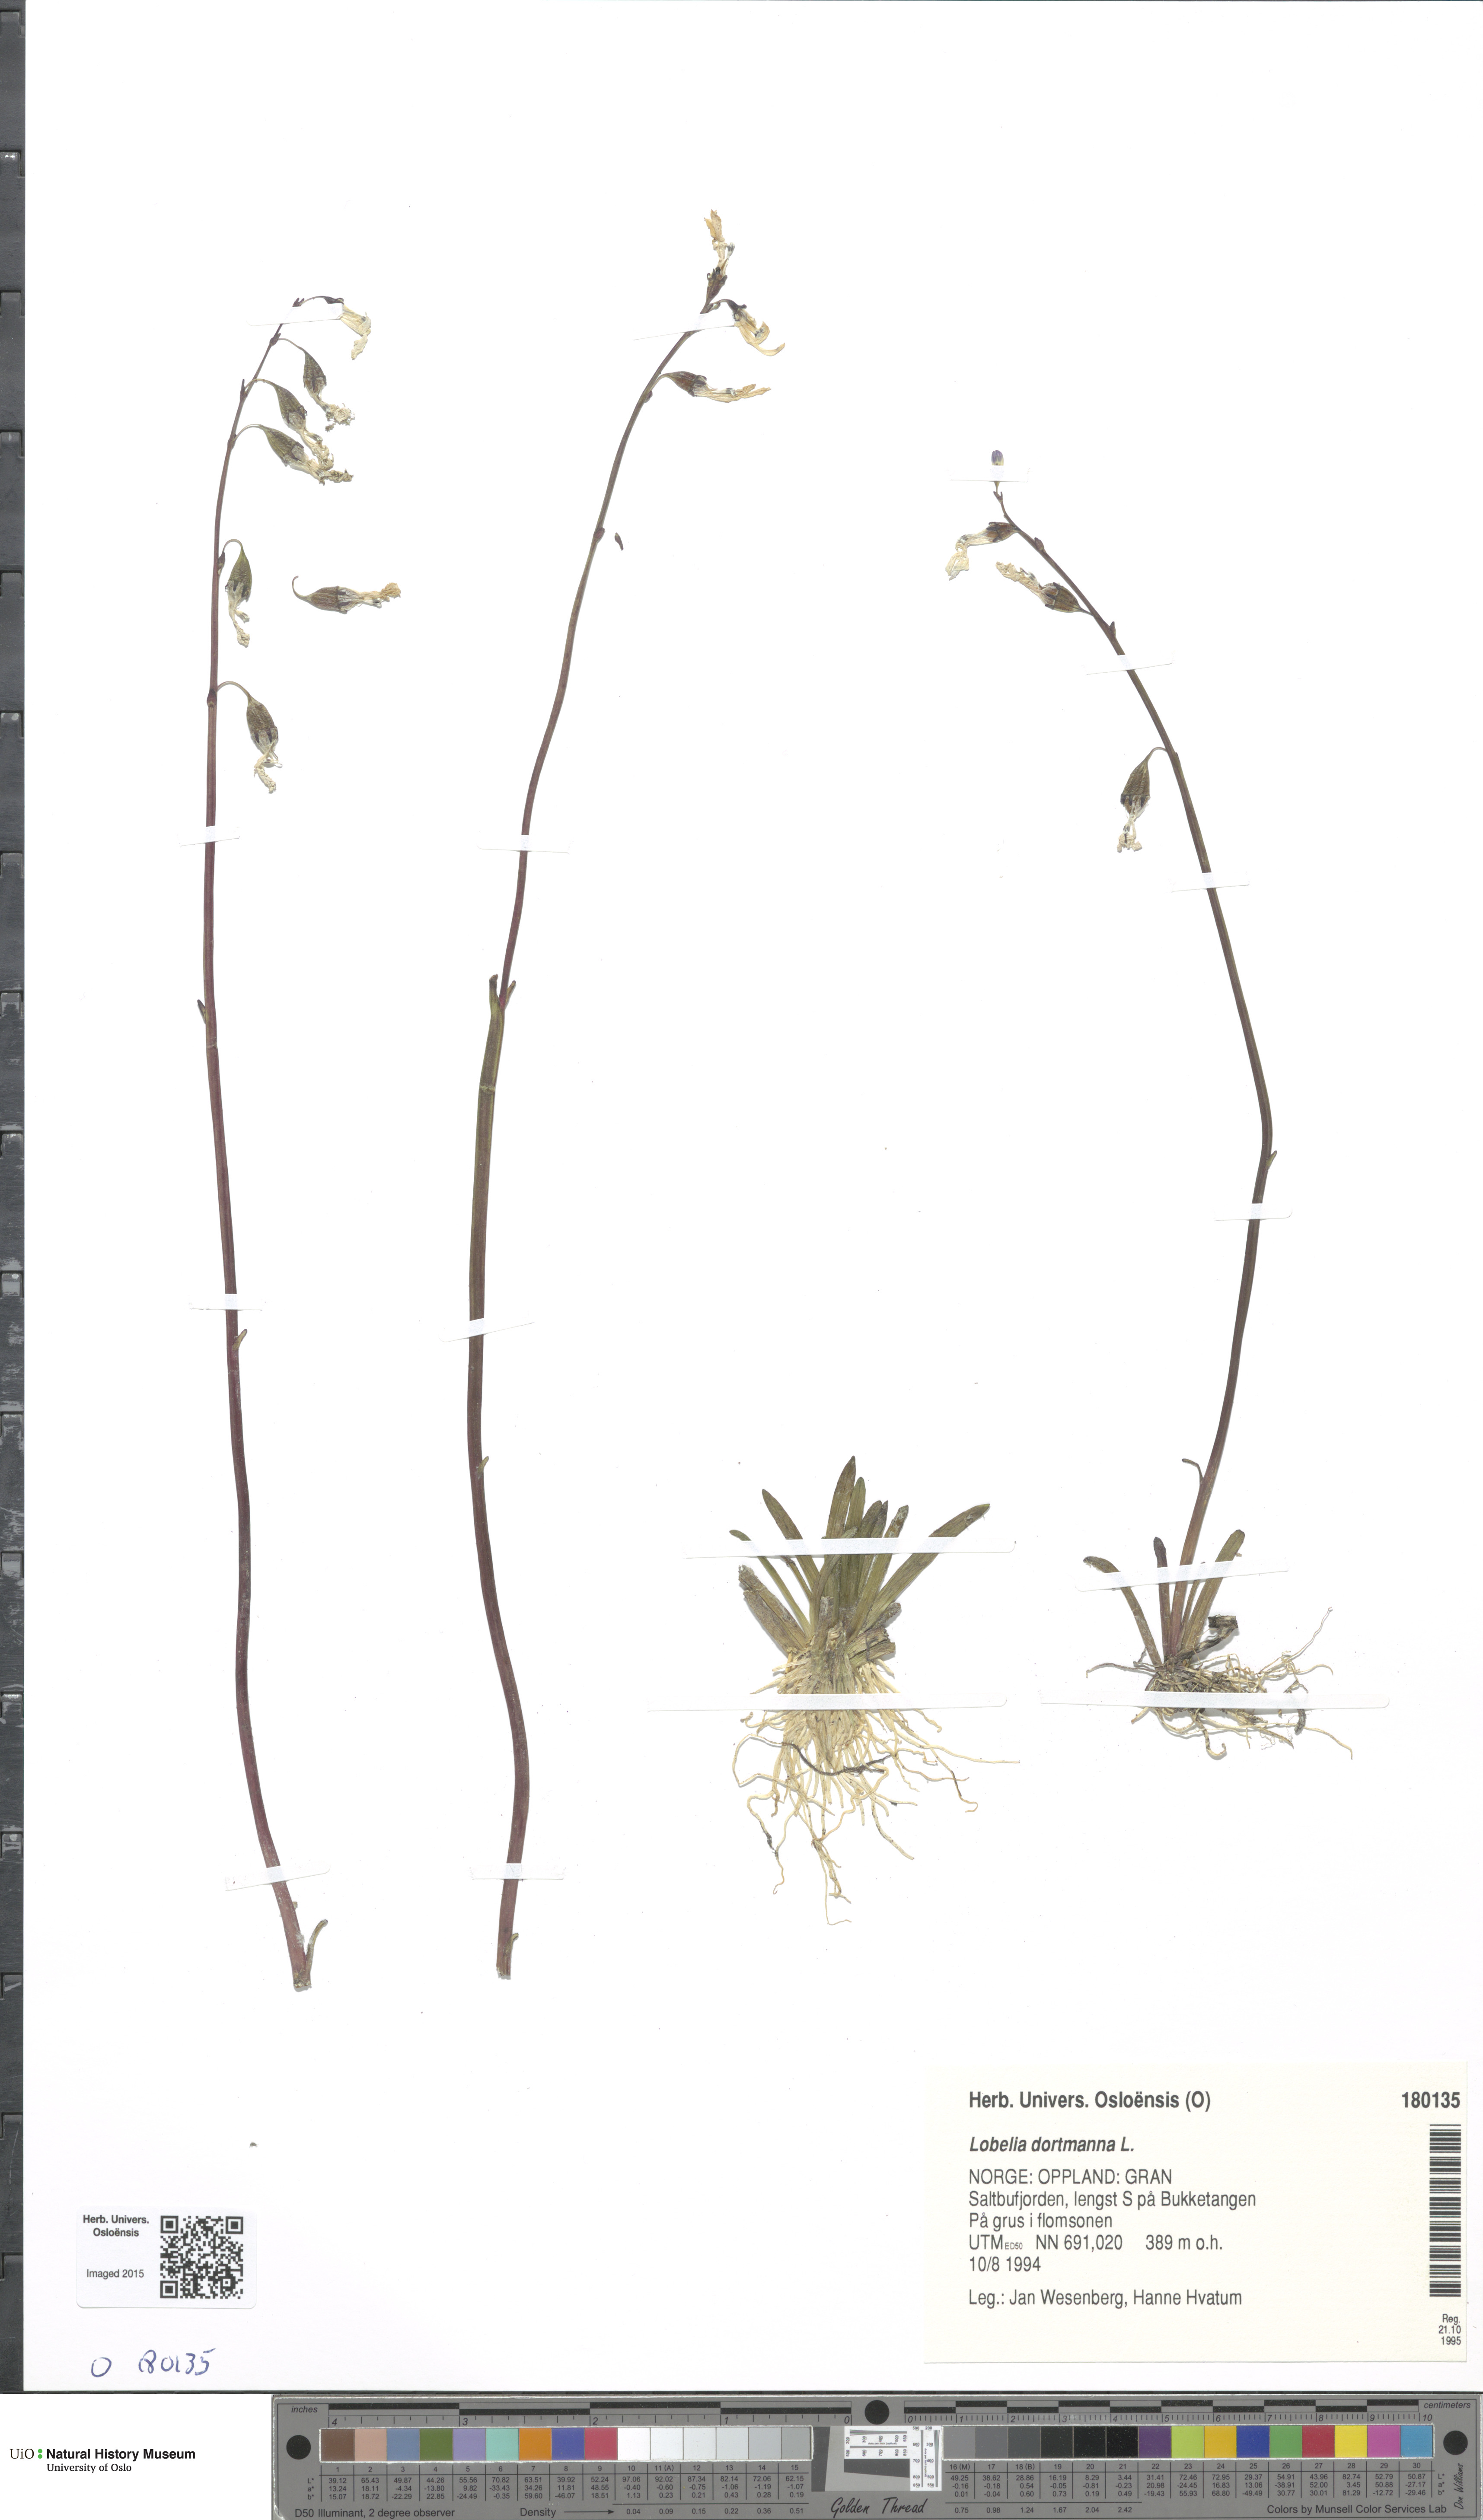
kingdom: Plantae
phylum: Tracheophyta
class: Magnoliopsida
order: Asterales
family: Campanulaceae
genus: Lobelia
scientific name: Lobelia dortmanna
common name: Water lobelia
